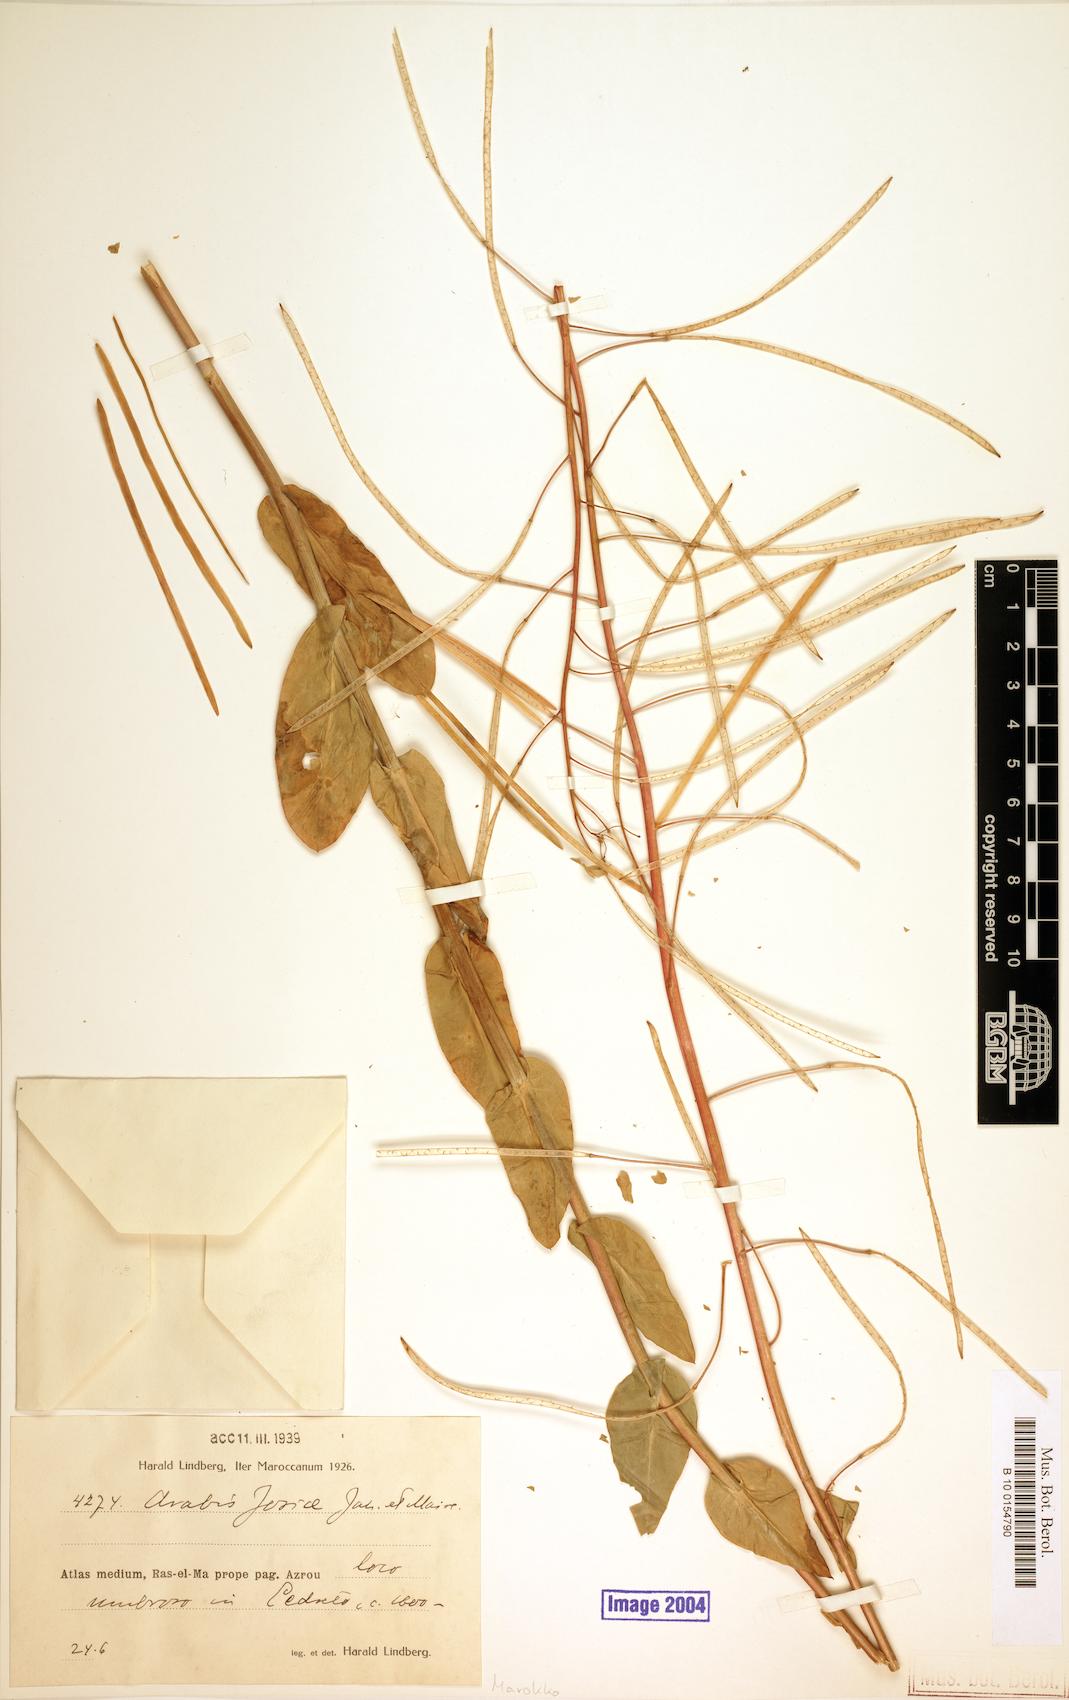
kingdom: Plantae
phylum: Tracheophyta
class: Magnoliopsida
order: Brassicales
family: Brassicaceae
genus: Arabis
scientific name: Arabis josiae
